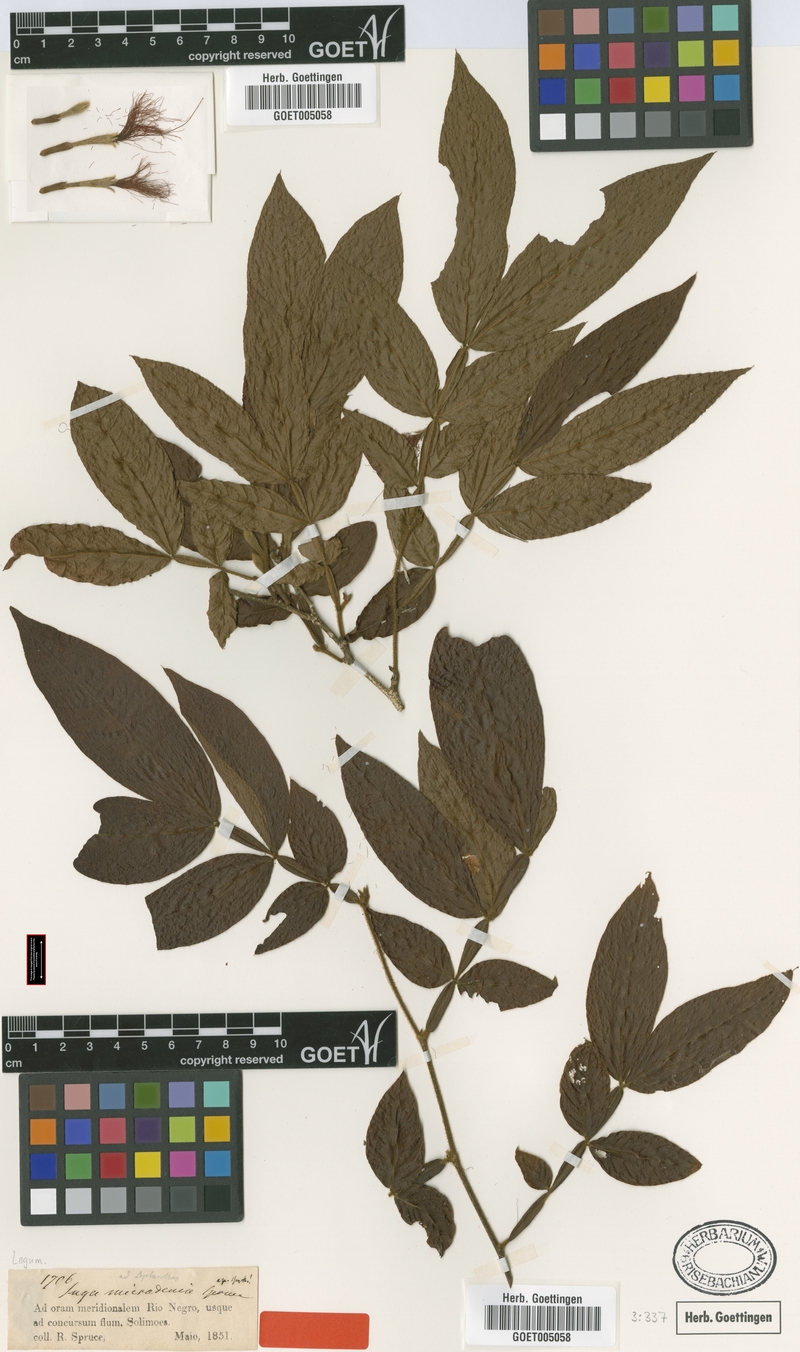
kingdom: Plantae
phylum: Tracheophyta
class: Magnoliopsida
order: Fabales
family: Fabaceae
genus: Inga
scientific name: Inga micradenia
